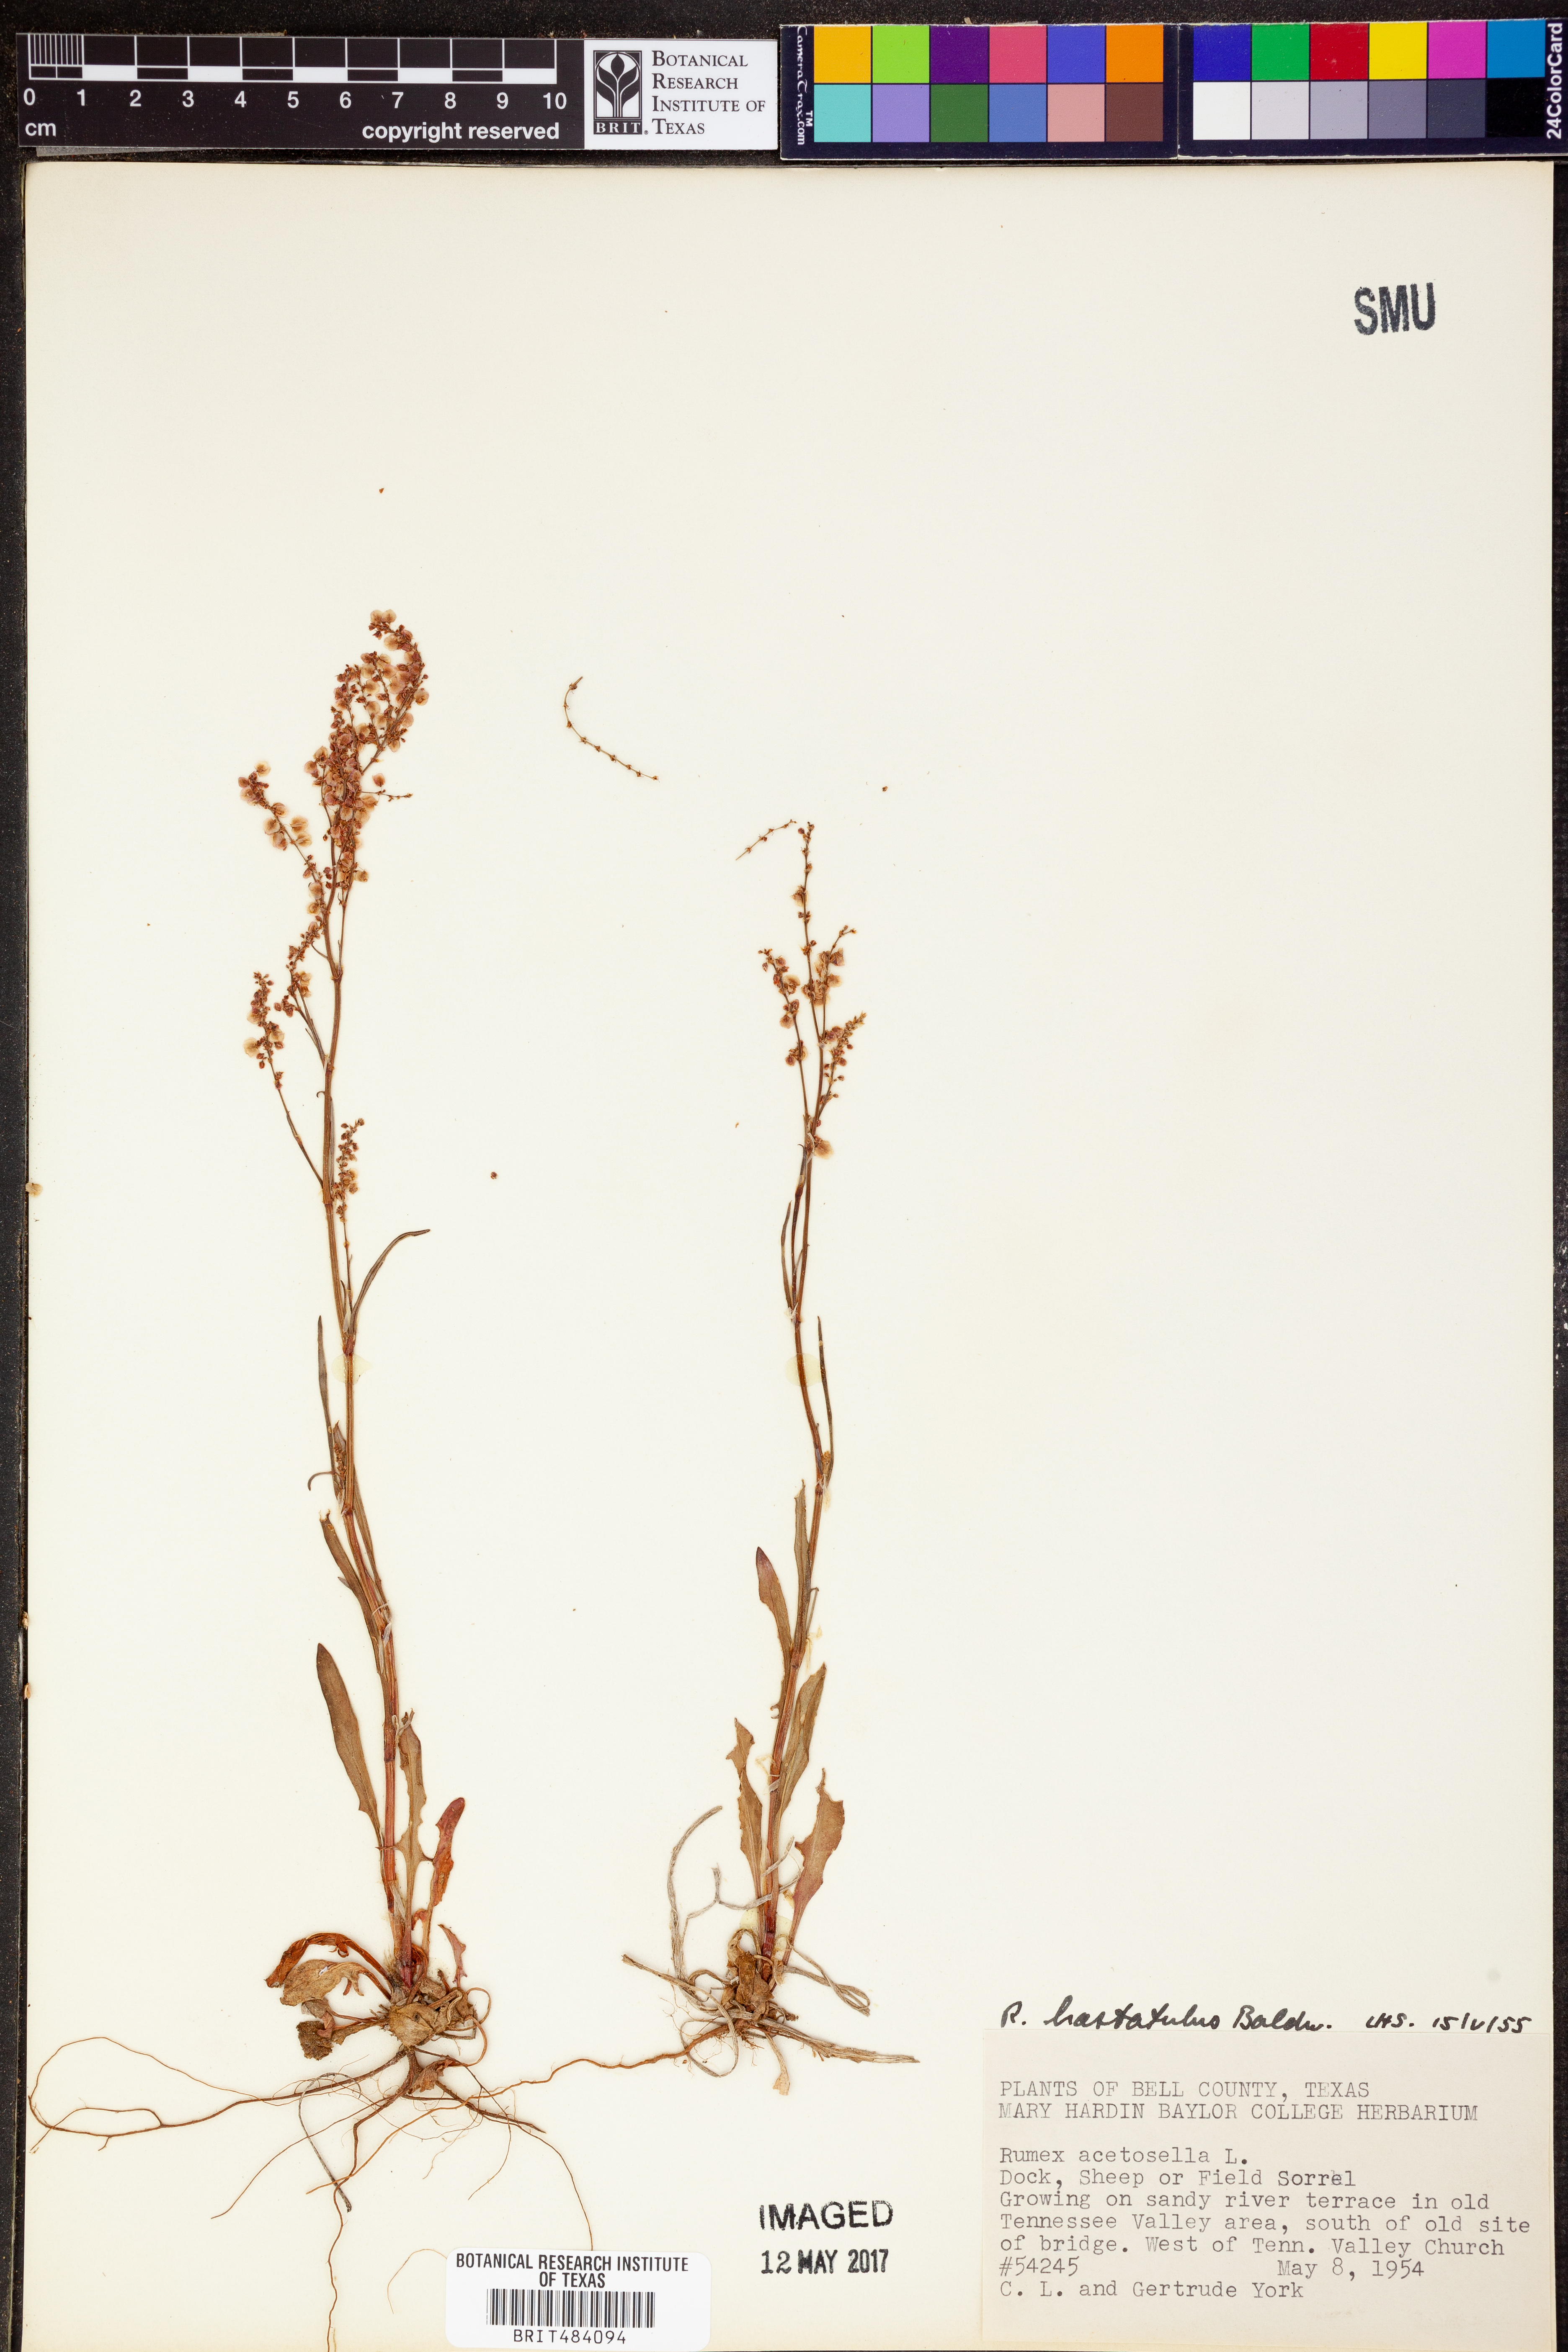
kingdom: Plantae
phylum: Tracheophyta
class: Magnoliopsida
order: Caryophyllales
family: Polygonaceae
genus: Rumex
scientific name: Rumex hastatulus
